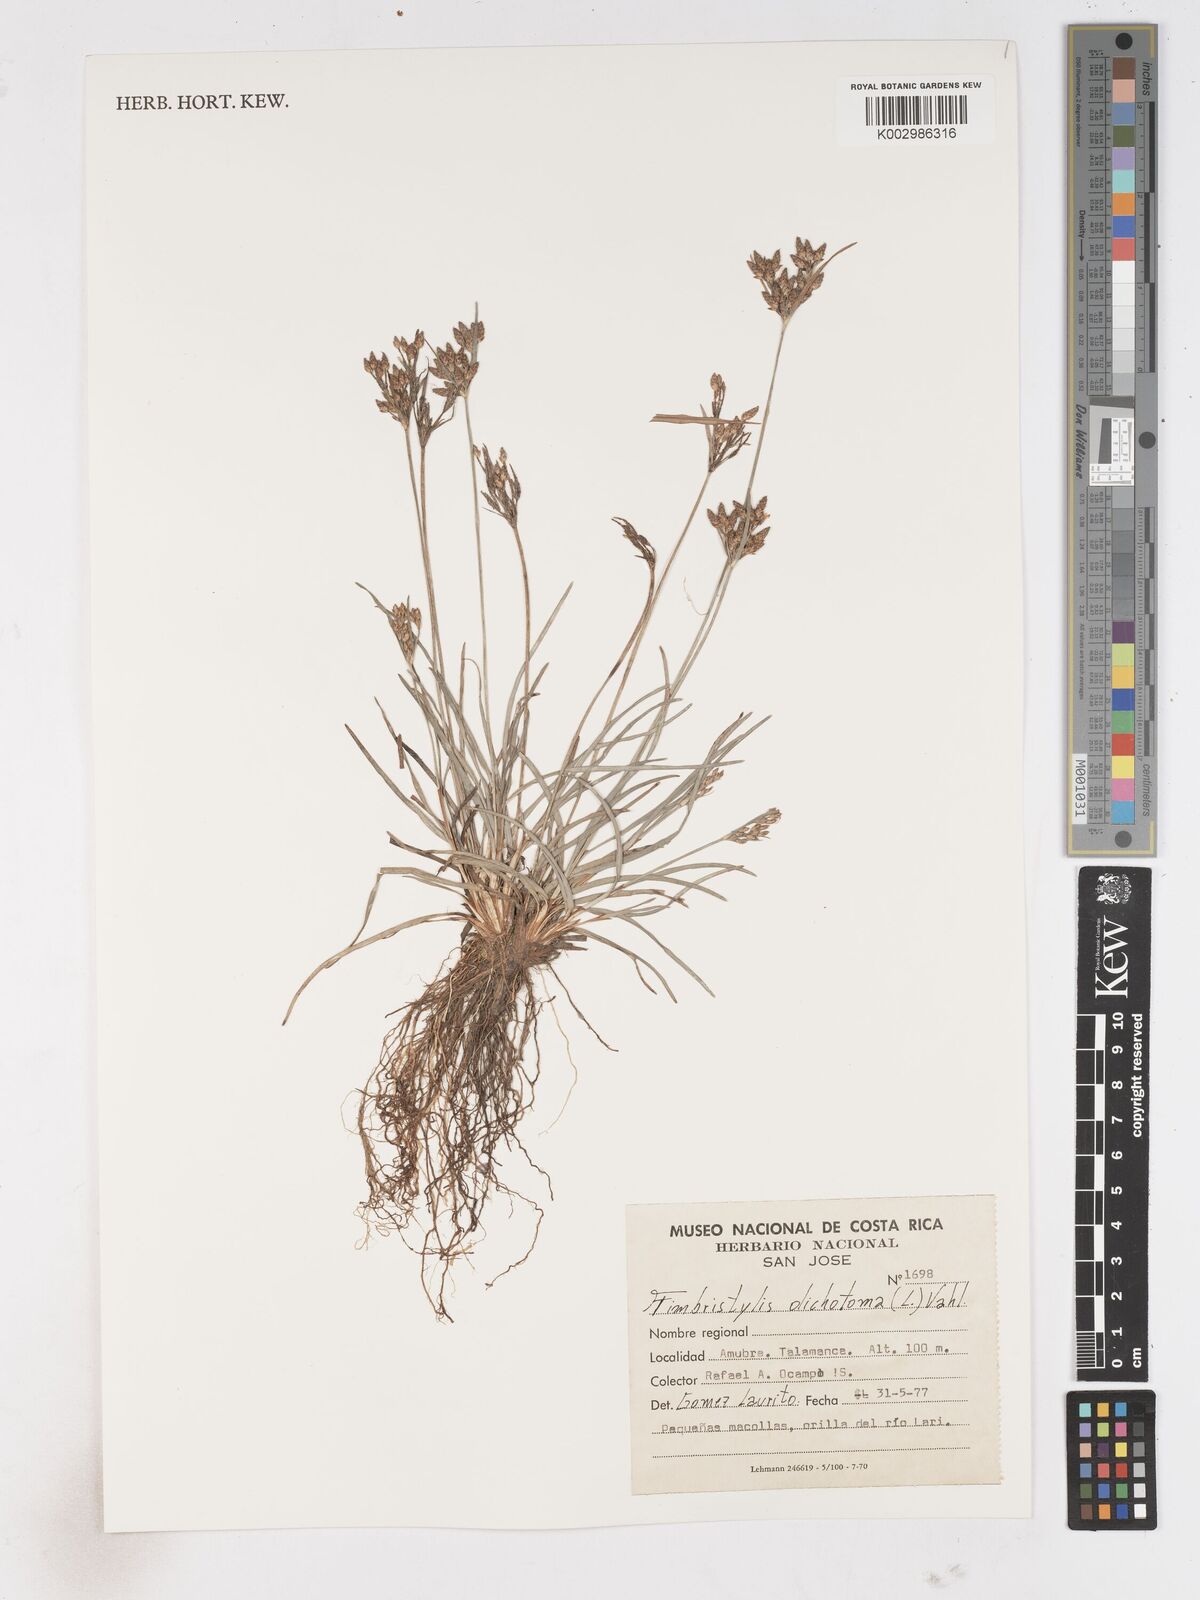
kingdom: Plantae
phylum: Tracheophyta
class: Liliopsida
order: Poales
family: Cyperaceae
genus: Fimbristylis
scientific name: Fimbristylis dichotoma
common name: Forked fimbry
